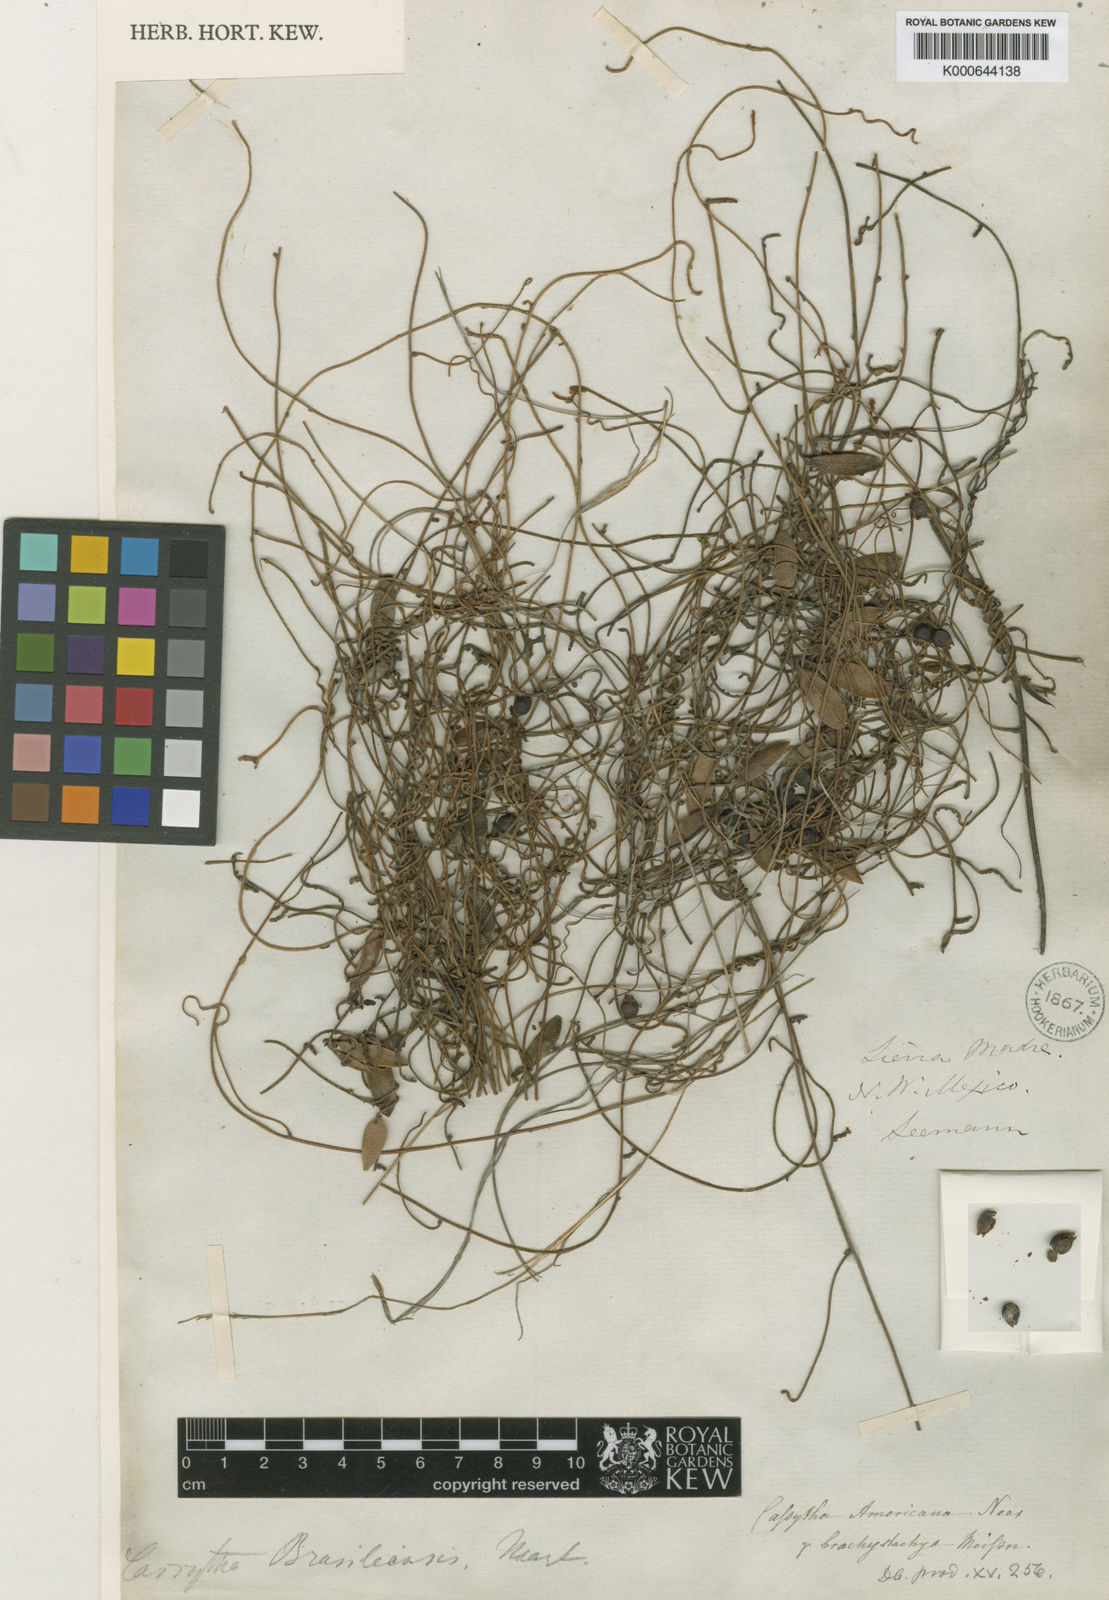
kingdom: Plantae
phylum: Tracheophyta
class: Magnoliopsida
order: Laurales
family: Lauraceae
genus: Cassytha
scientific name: Cassytha filiformis
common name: Dodder-laurel
